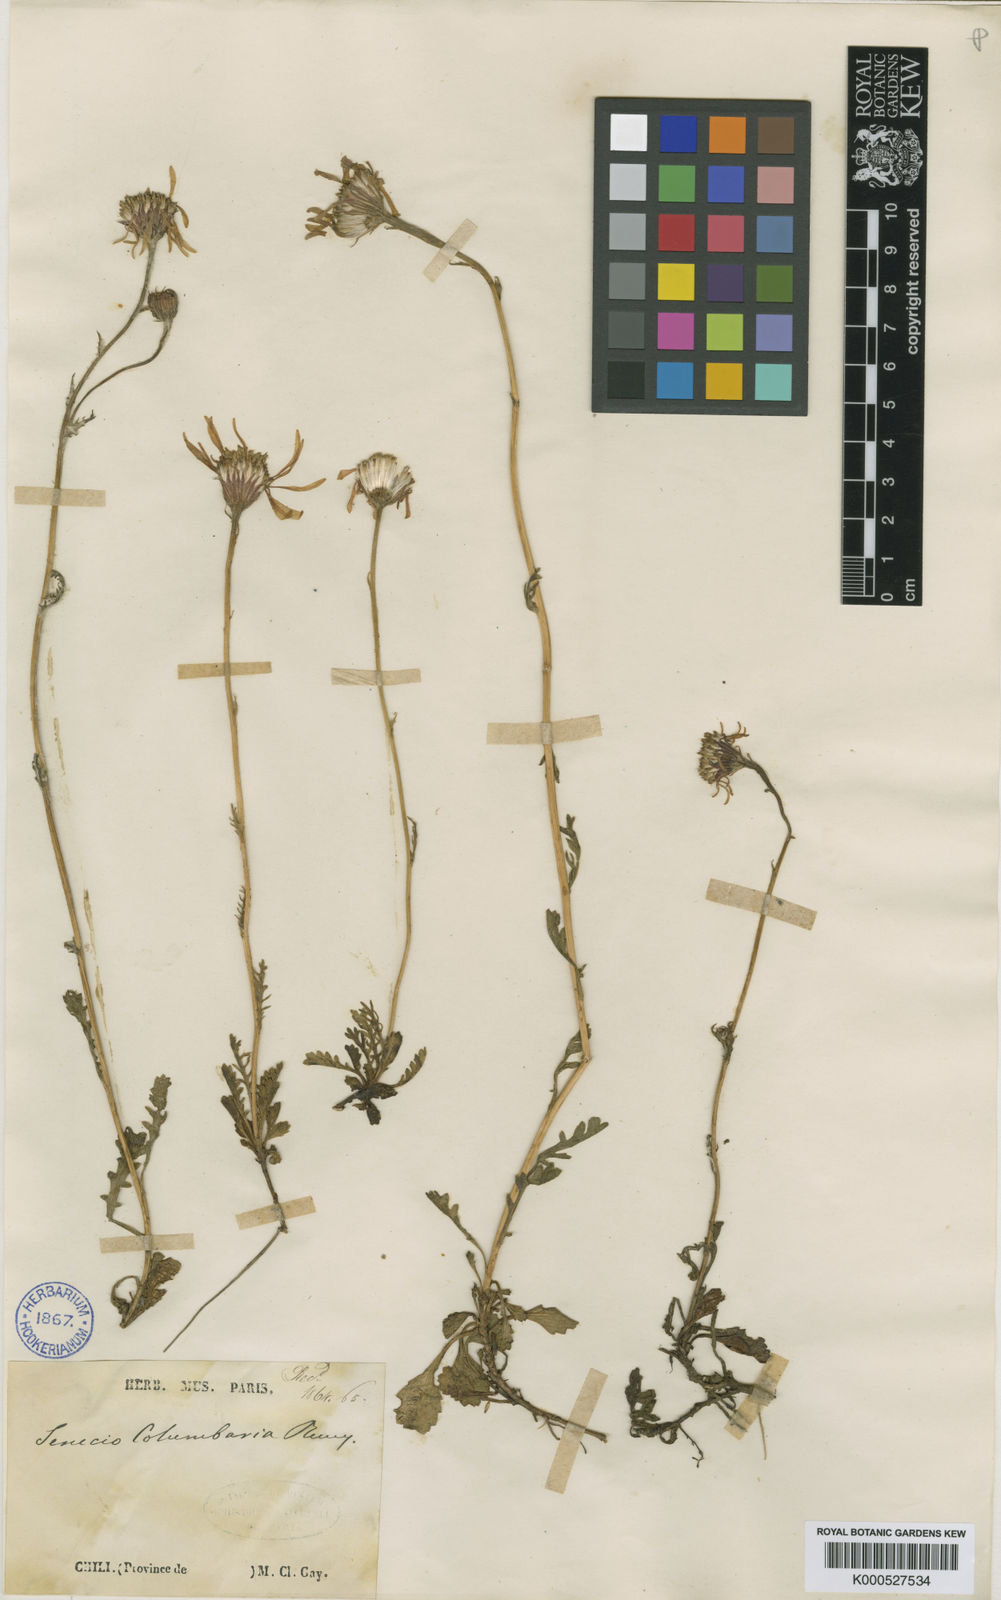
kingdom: Plantae
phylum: Tracheophyta
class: Magnoliopsida
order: Asterales
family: Asteraceae
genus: Senecio
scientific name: Senecio calocephalus
